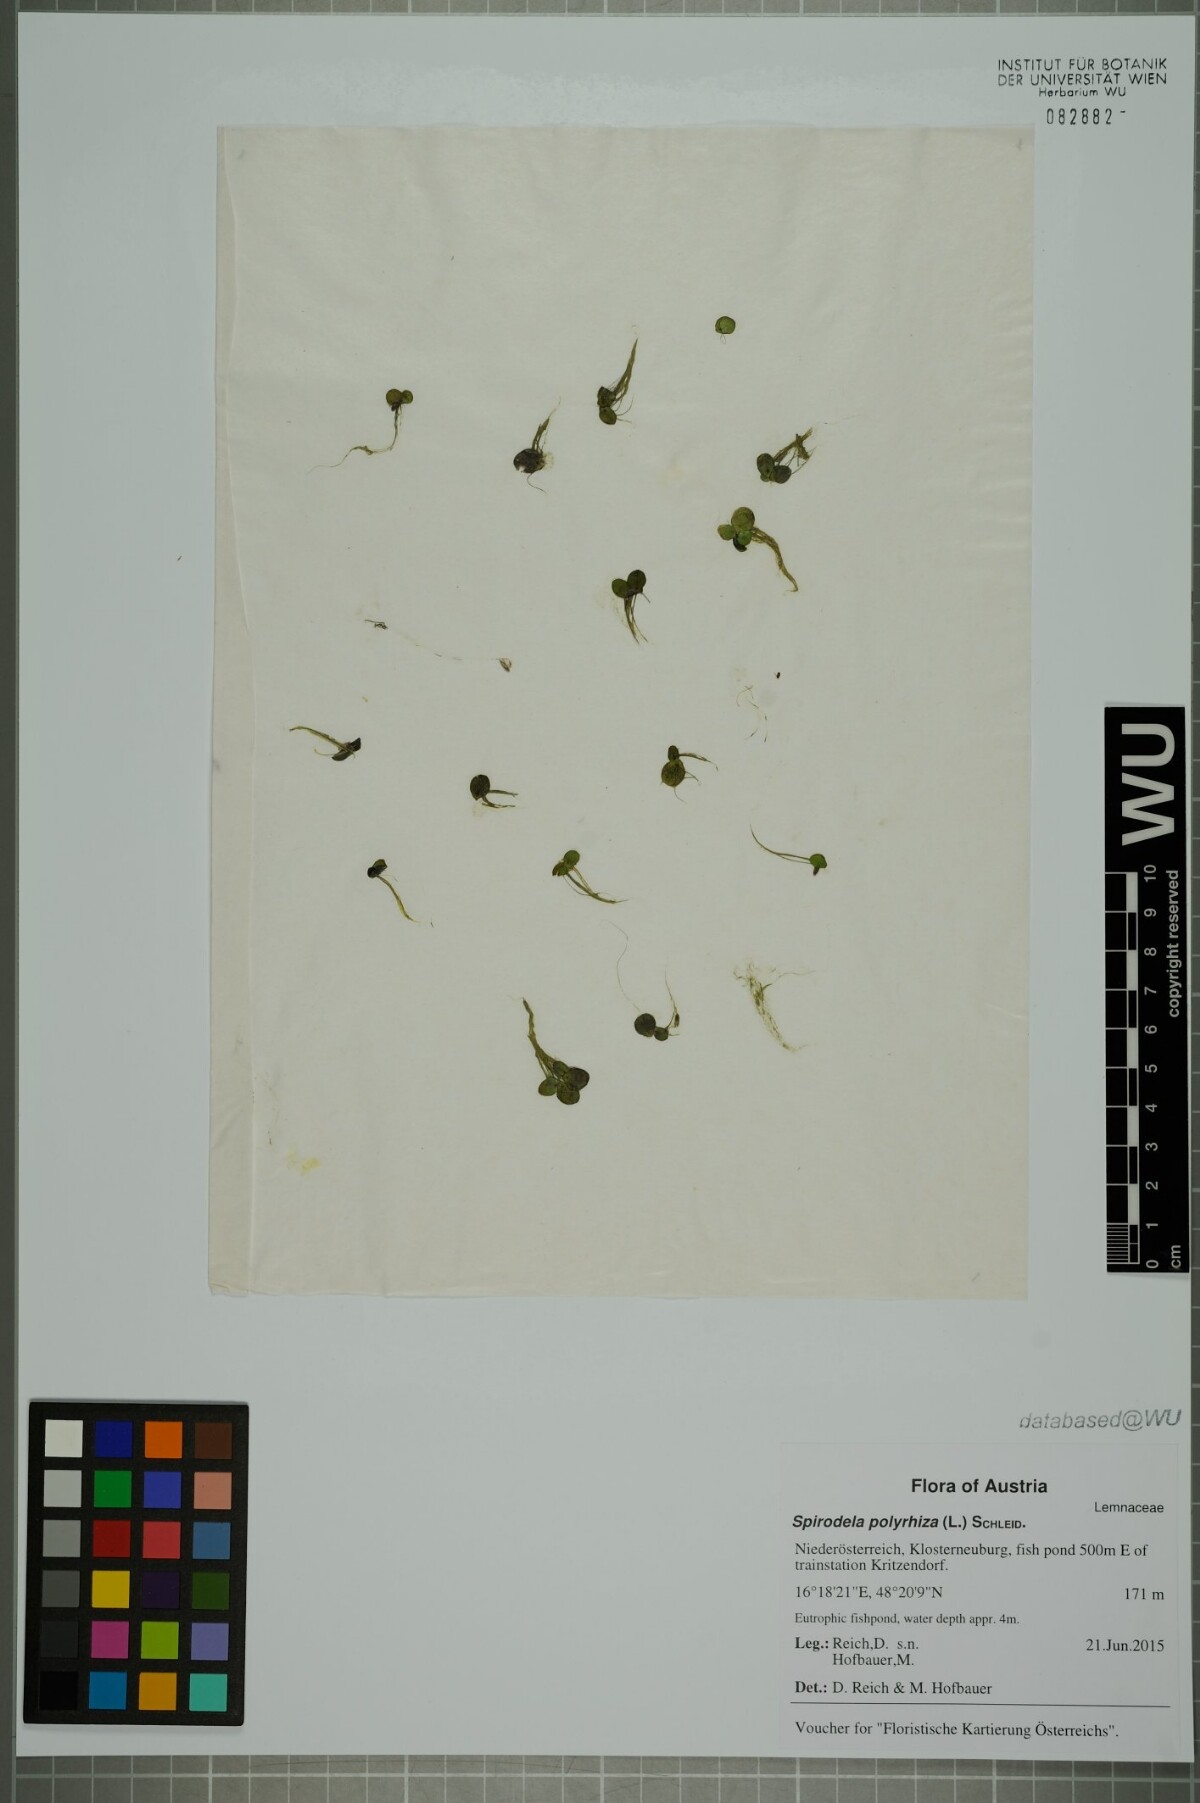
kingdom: Plantae
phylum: Tracheophyta
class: Liliopsida
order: Alismatales
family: Araceae
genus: Spirodela
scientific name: Spirodela polyrhiza
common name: Great duckweed
